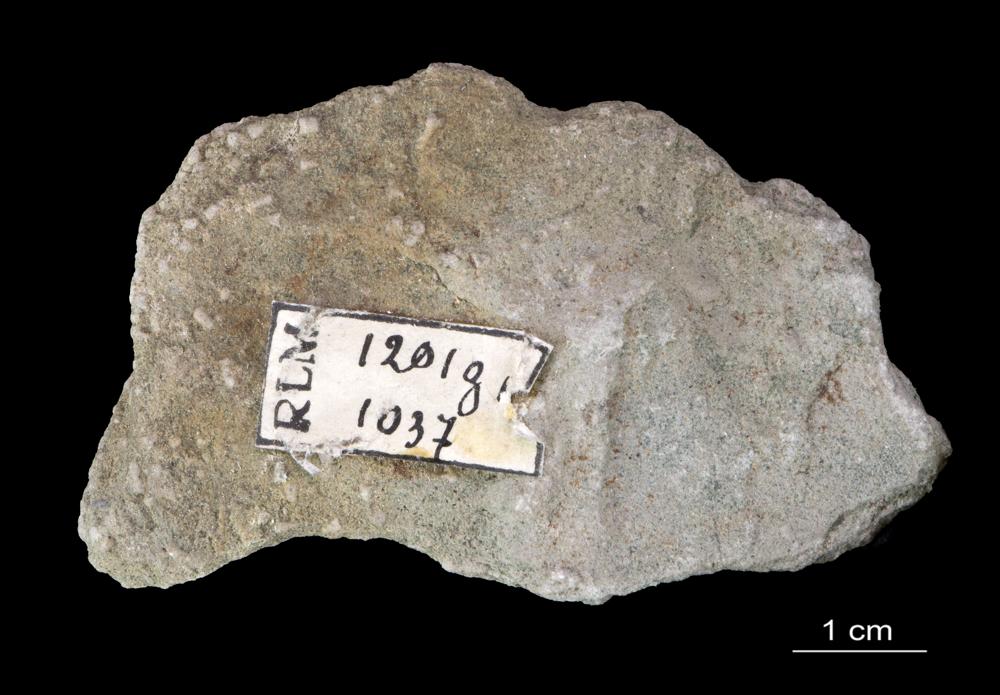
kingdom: Animalia
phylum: Annelida
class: Polychaeta
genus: Volborthella
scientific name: Volborthella tenuis
